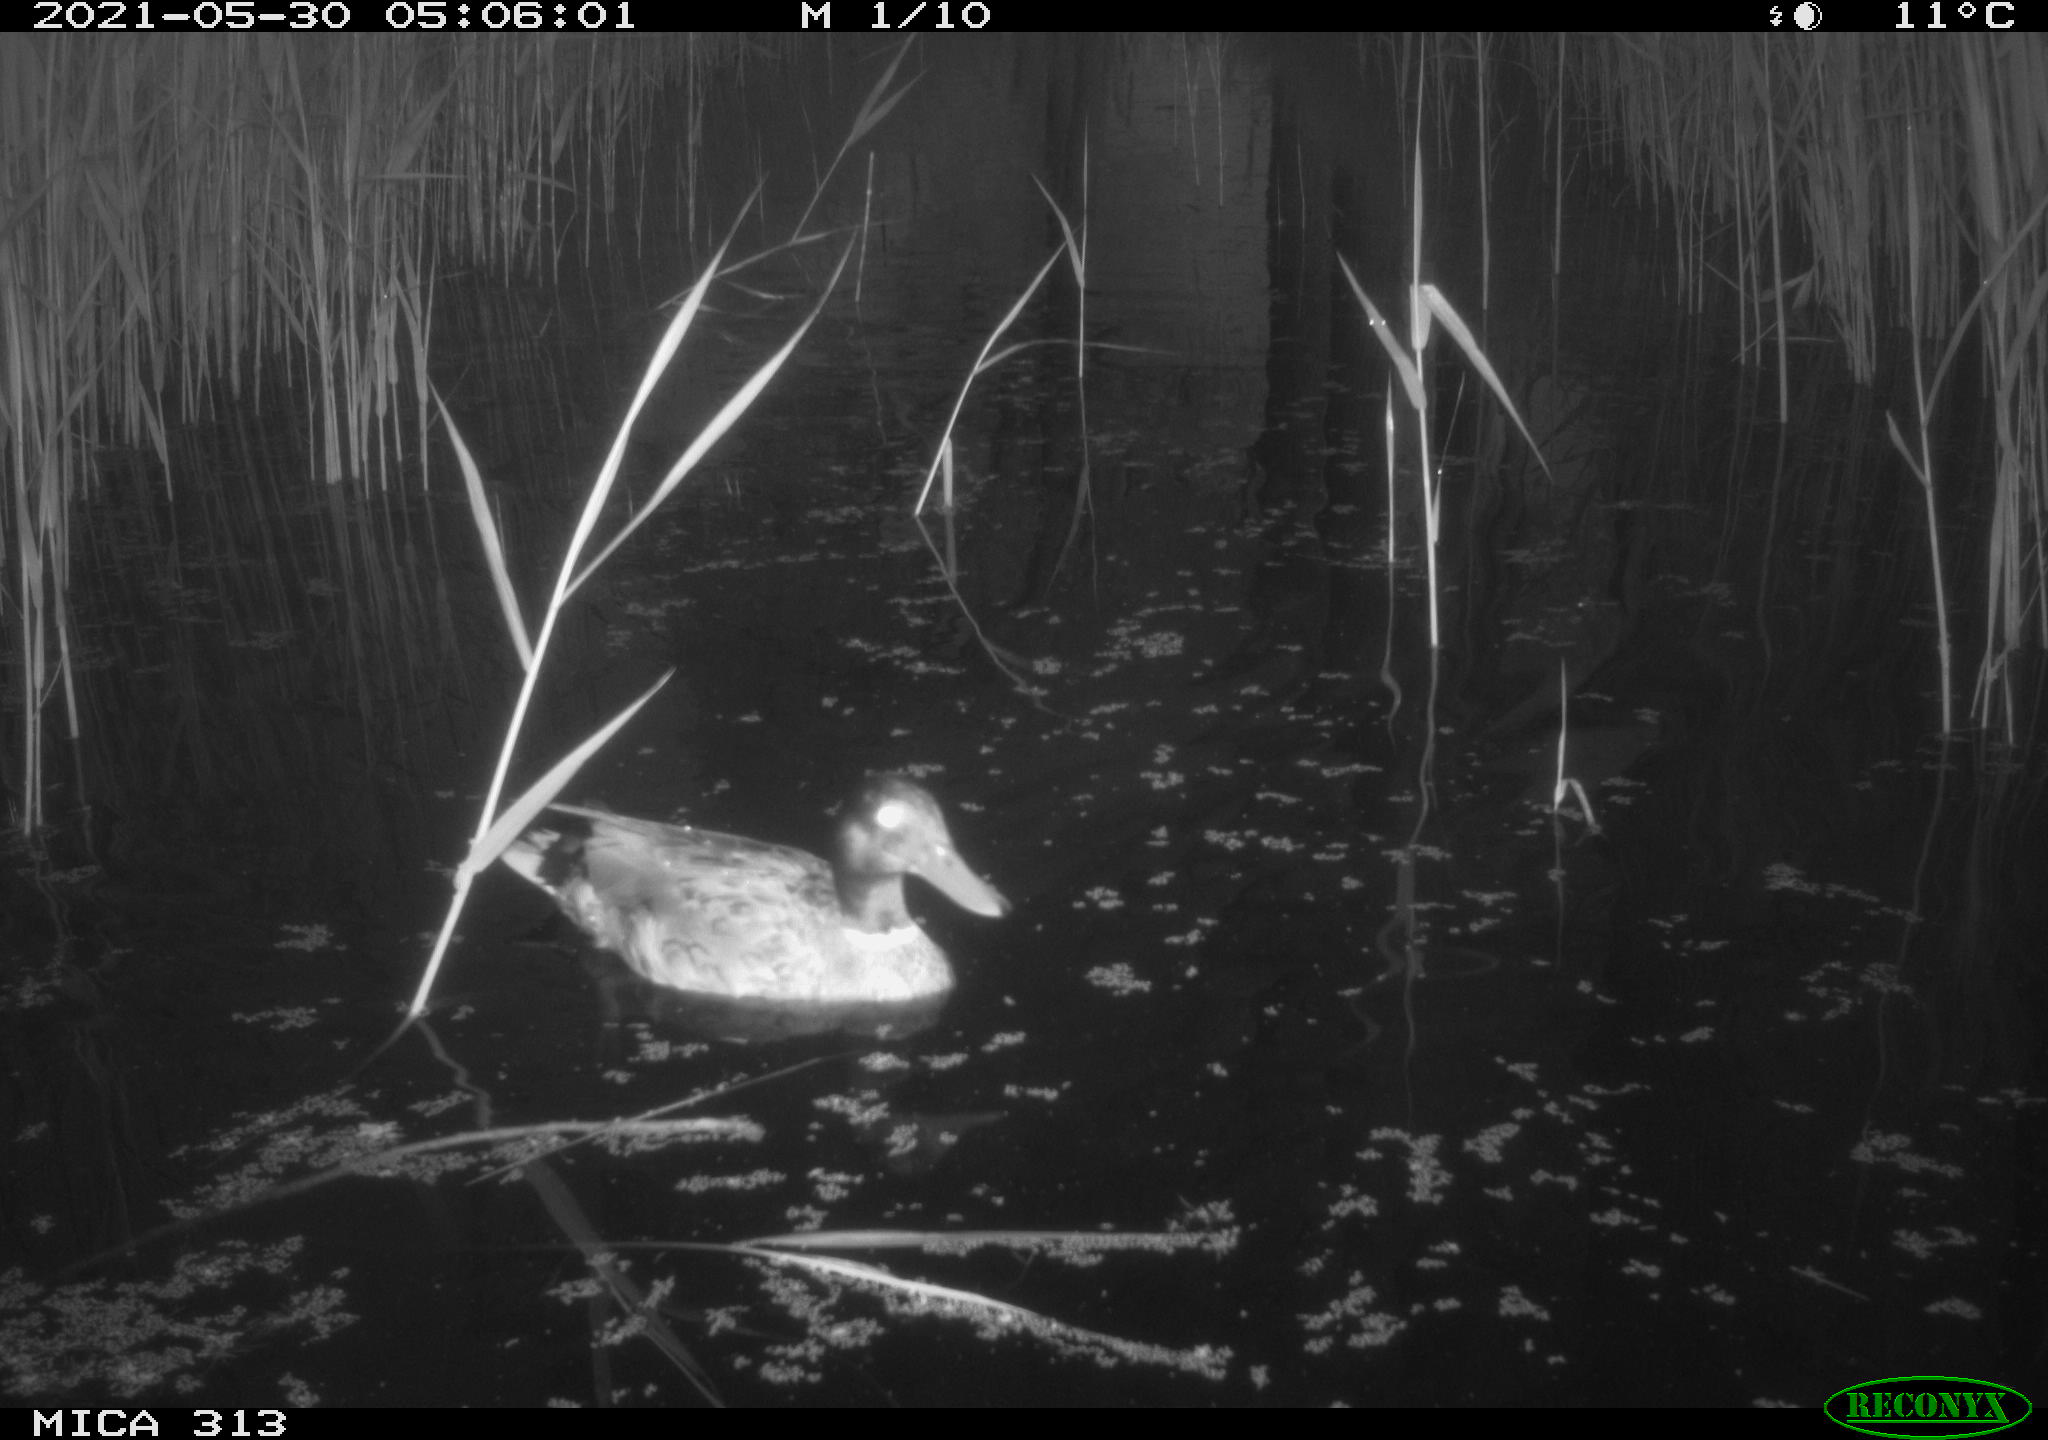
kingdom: Animalia
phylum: Chordata
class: Aves
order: Anseriformes
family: Anatidae
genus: Mareca
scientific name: Mareca strepera
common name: Gadwall
